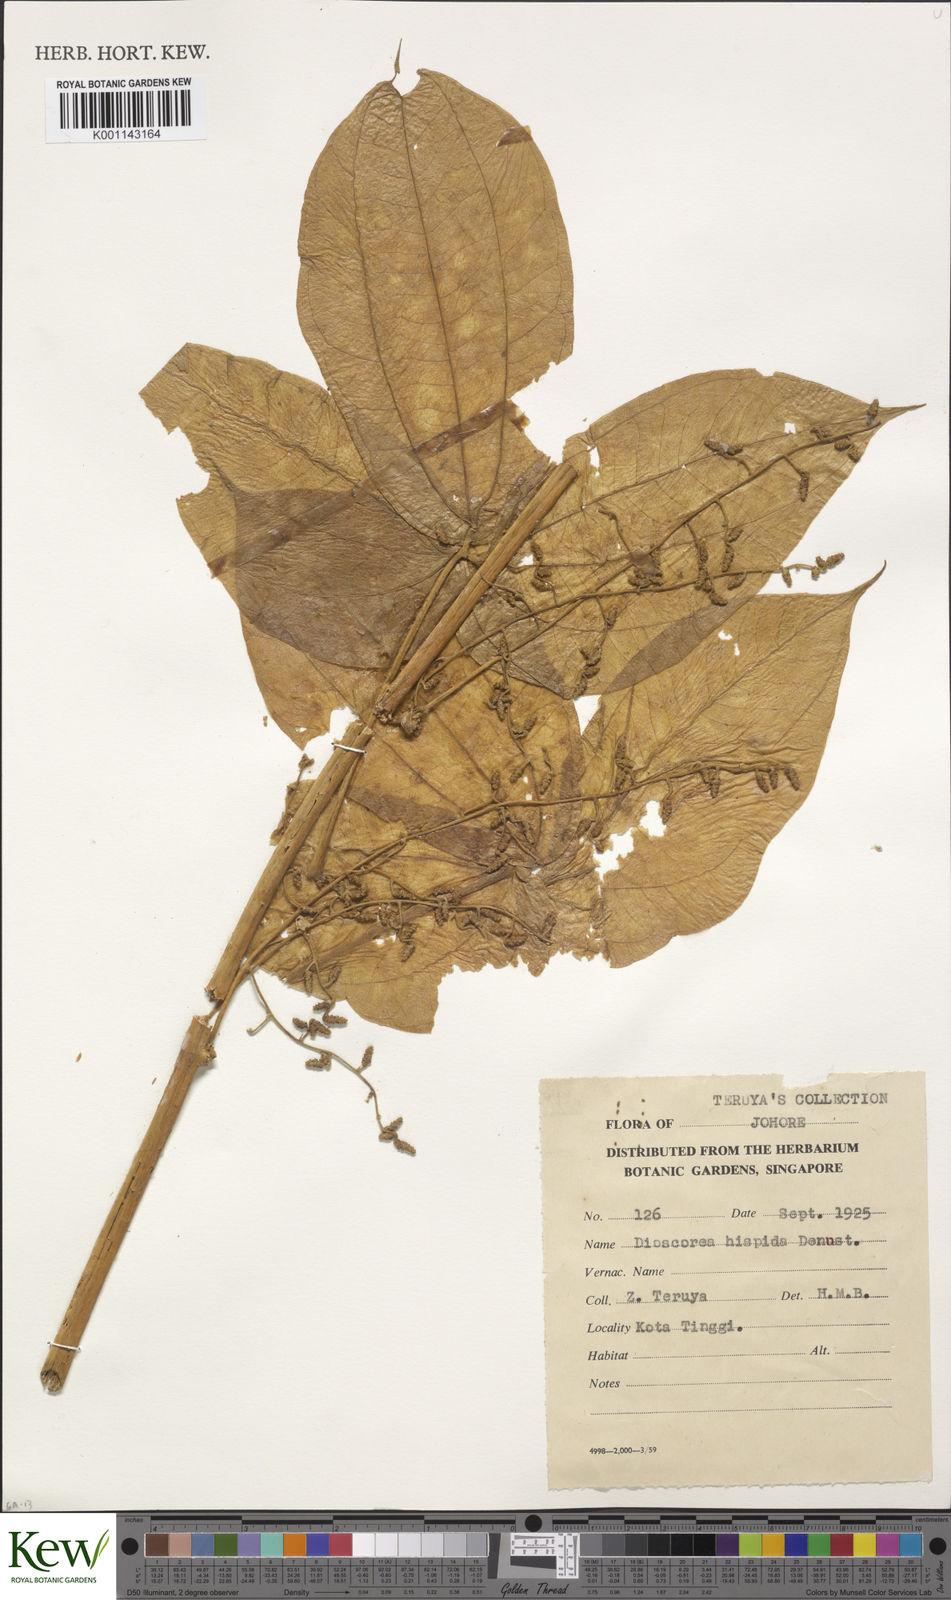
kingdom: Plantae
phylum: Tracheophyta
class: Liliopsida
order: Dioscoreales
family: Dioscoreaceae
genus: Dioscorea
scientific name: Dioscorea hispida
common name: Asiatic bitter yam
